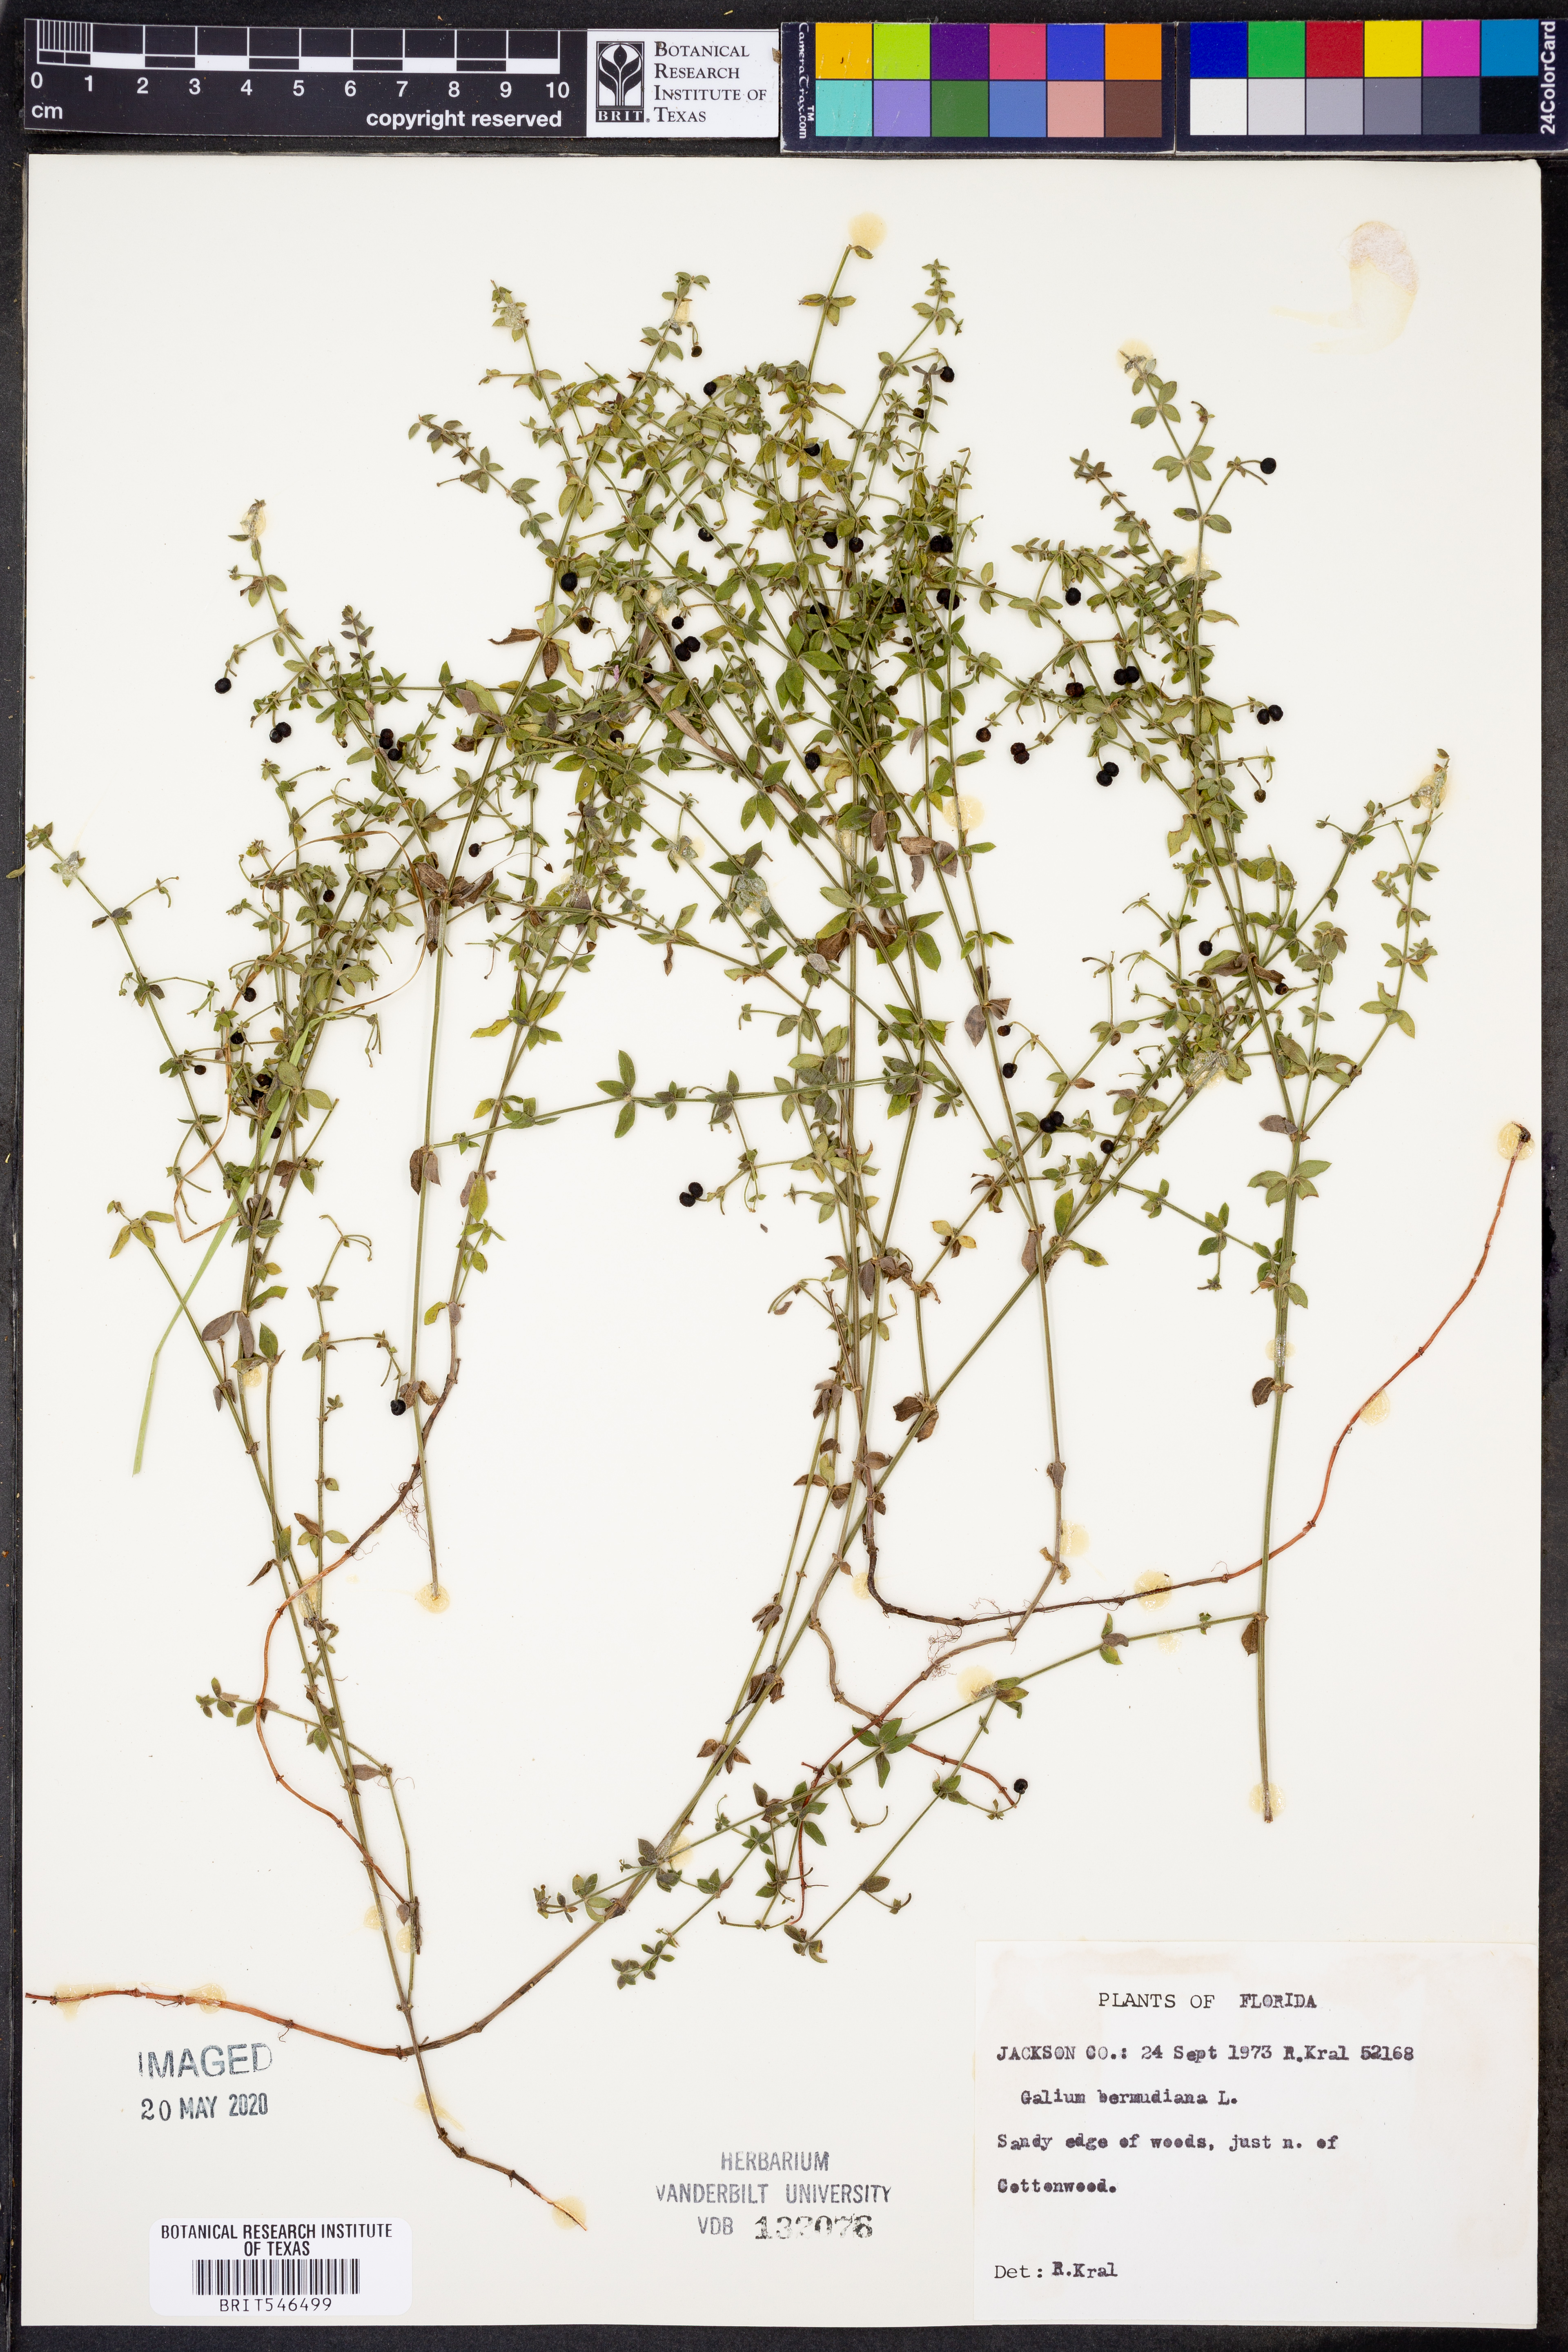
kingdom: Plantae
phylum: Tracheophyta
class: Magnoliopsida
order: Gentianales
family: Rubiaceae
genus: Galium
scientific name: Galium bermudense
